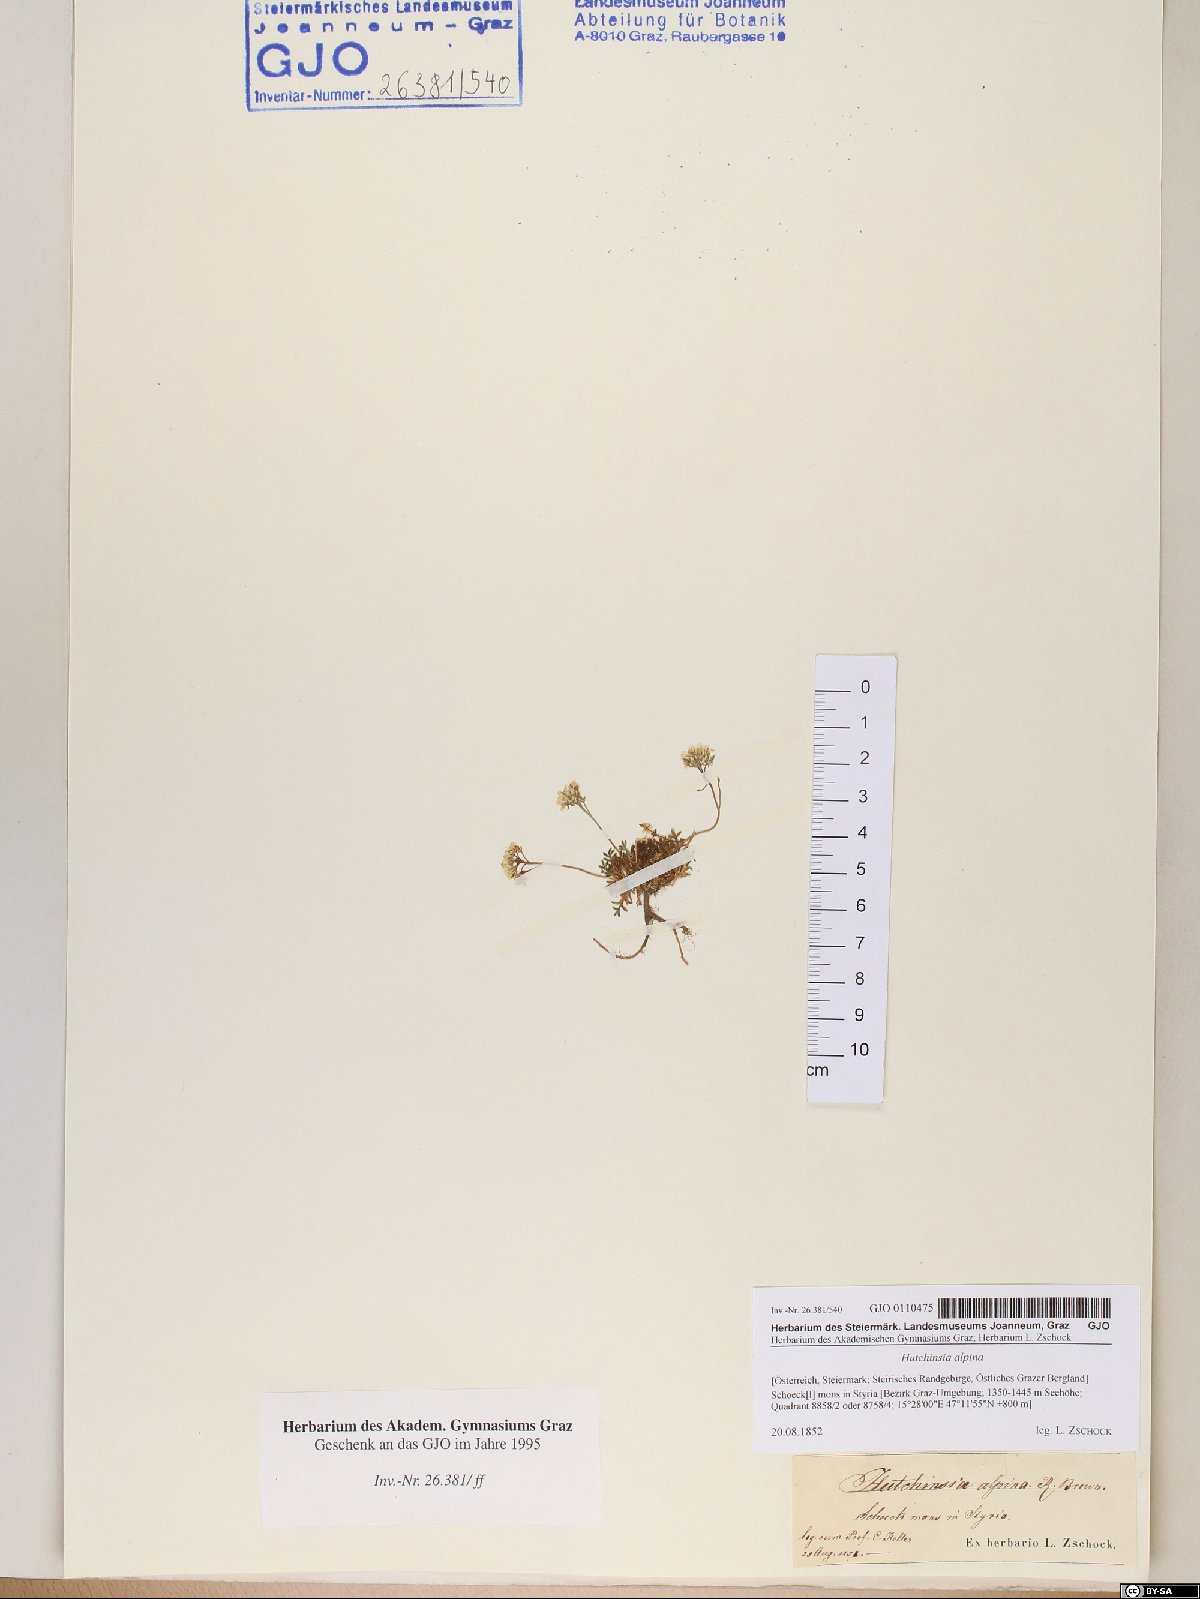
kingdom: Plantae
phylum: Tracheophyta
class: Magnoliopsida
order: Brassicales
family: Brassicaceae
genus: Hornungia
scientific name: Hornungia alpina
